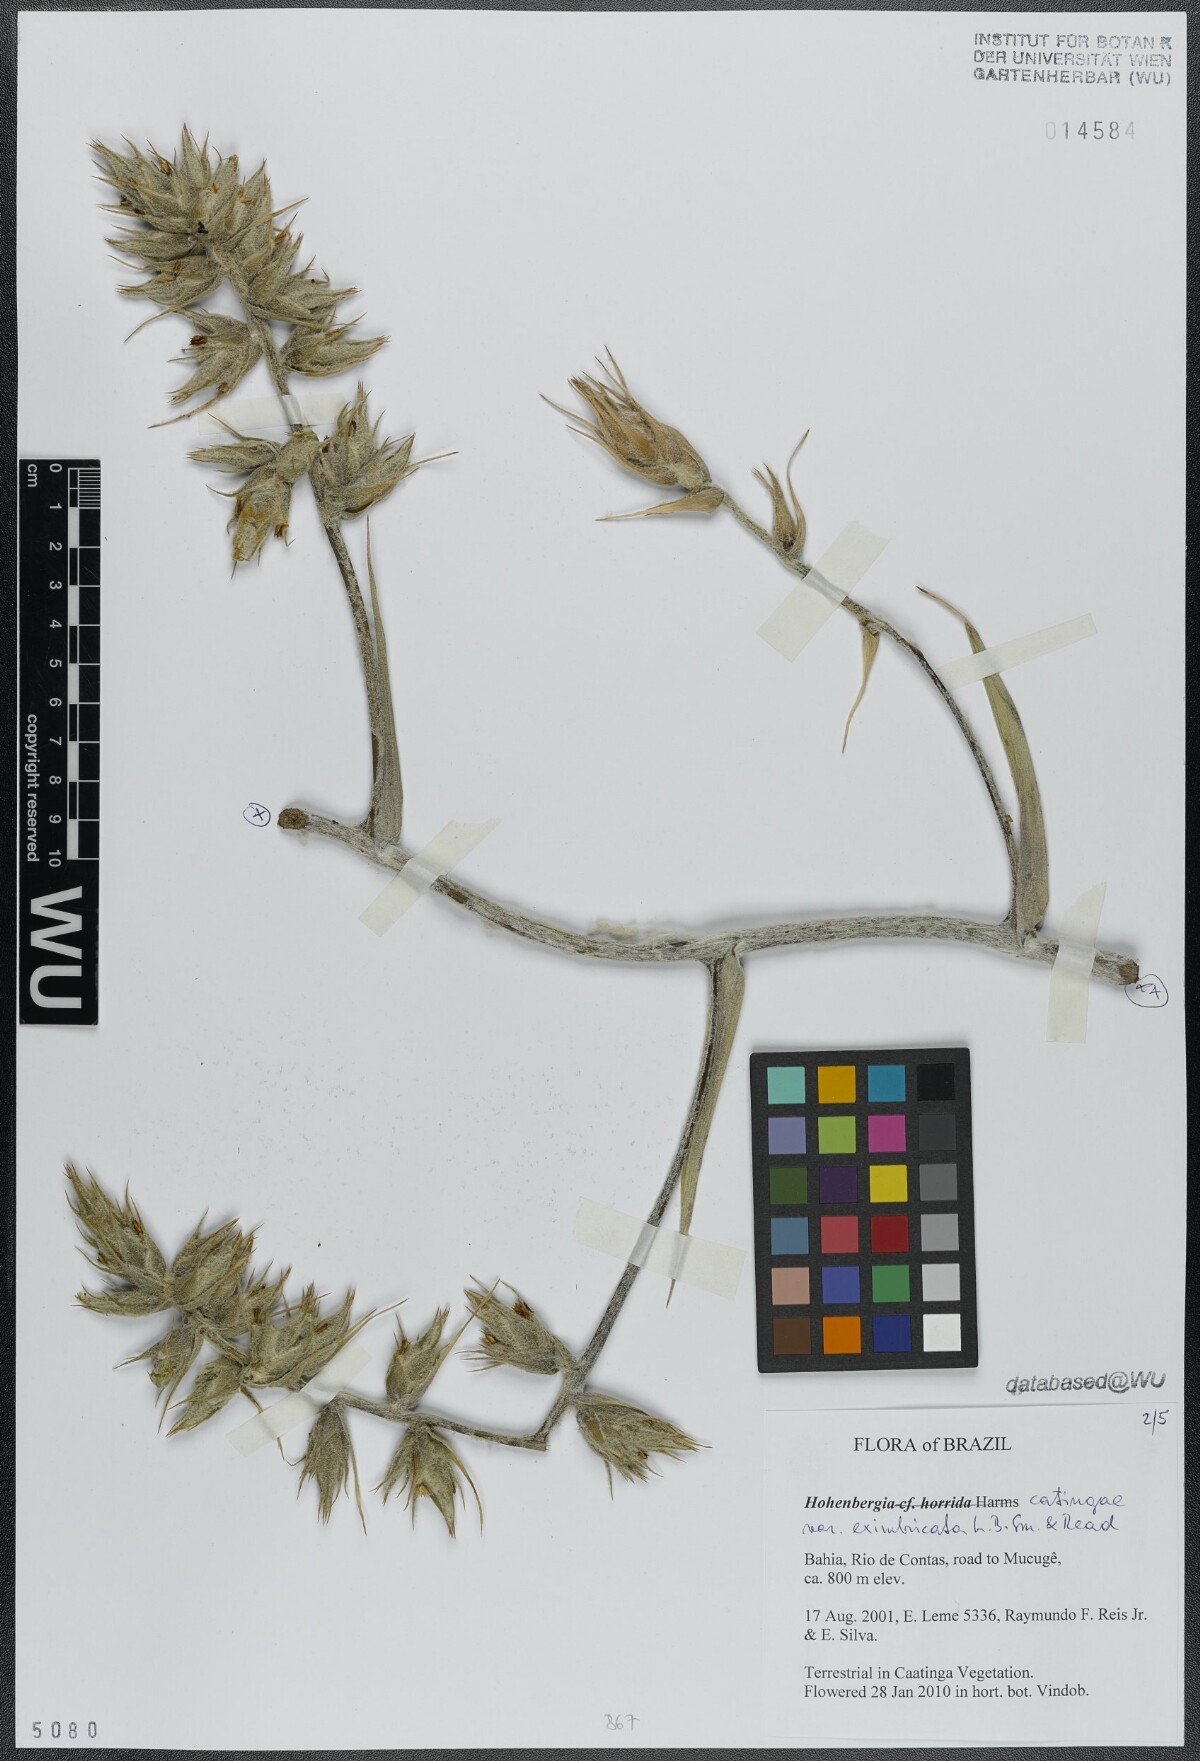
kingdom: Plantae
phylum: Tracheophyta
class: Liliopsida
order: Poales
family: Bromeliaceae
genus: Hohenbergia
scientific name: Hohenbergia catingae
